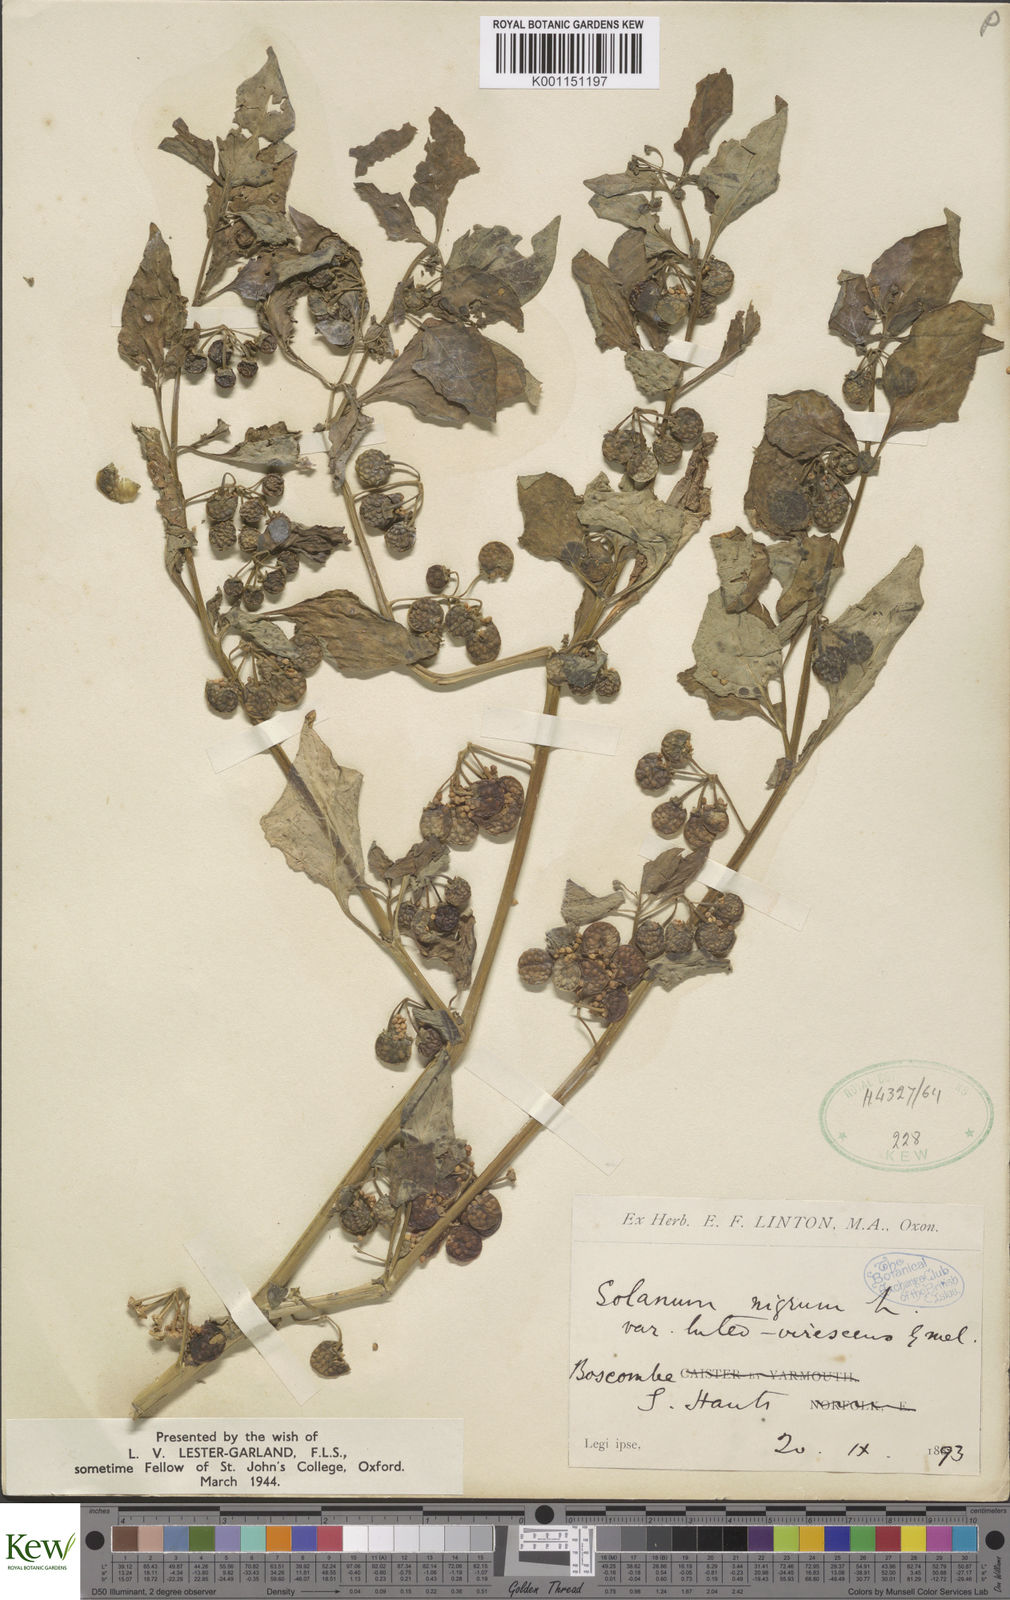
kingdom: Plantae
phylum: Tracheophyta
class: Magnoliopsida
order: Solanales
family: Solanaceae
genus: Solanum
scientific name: Solanum nigrum
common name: Black nightshade
